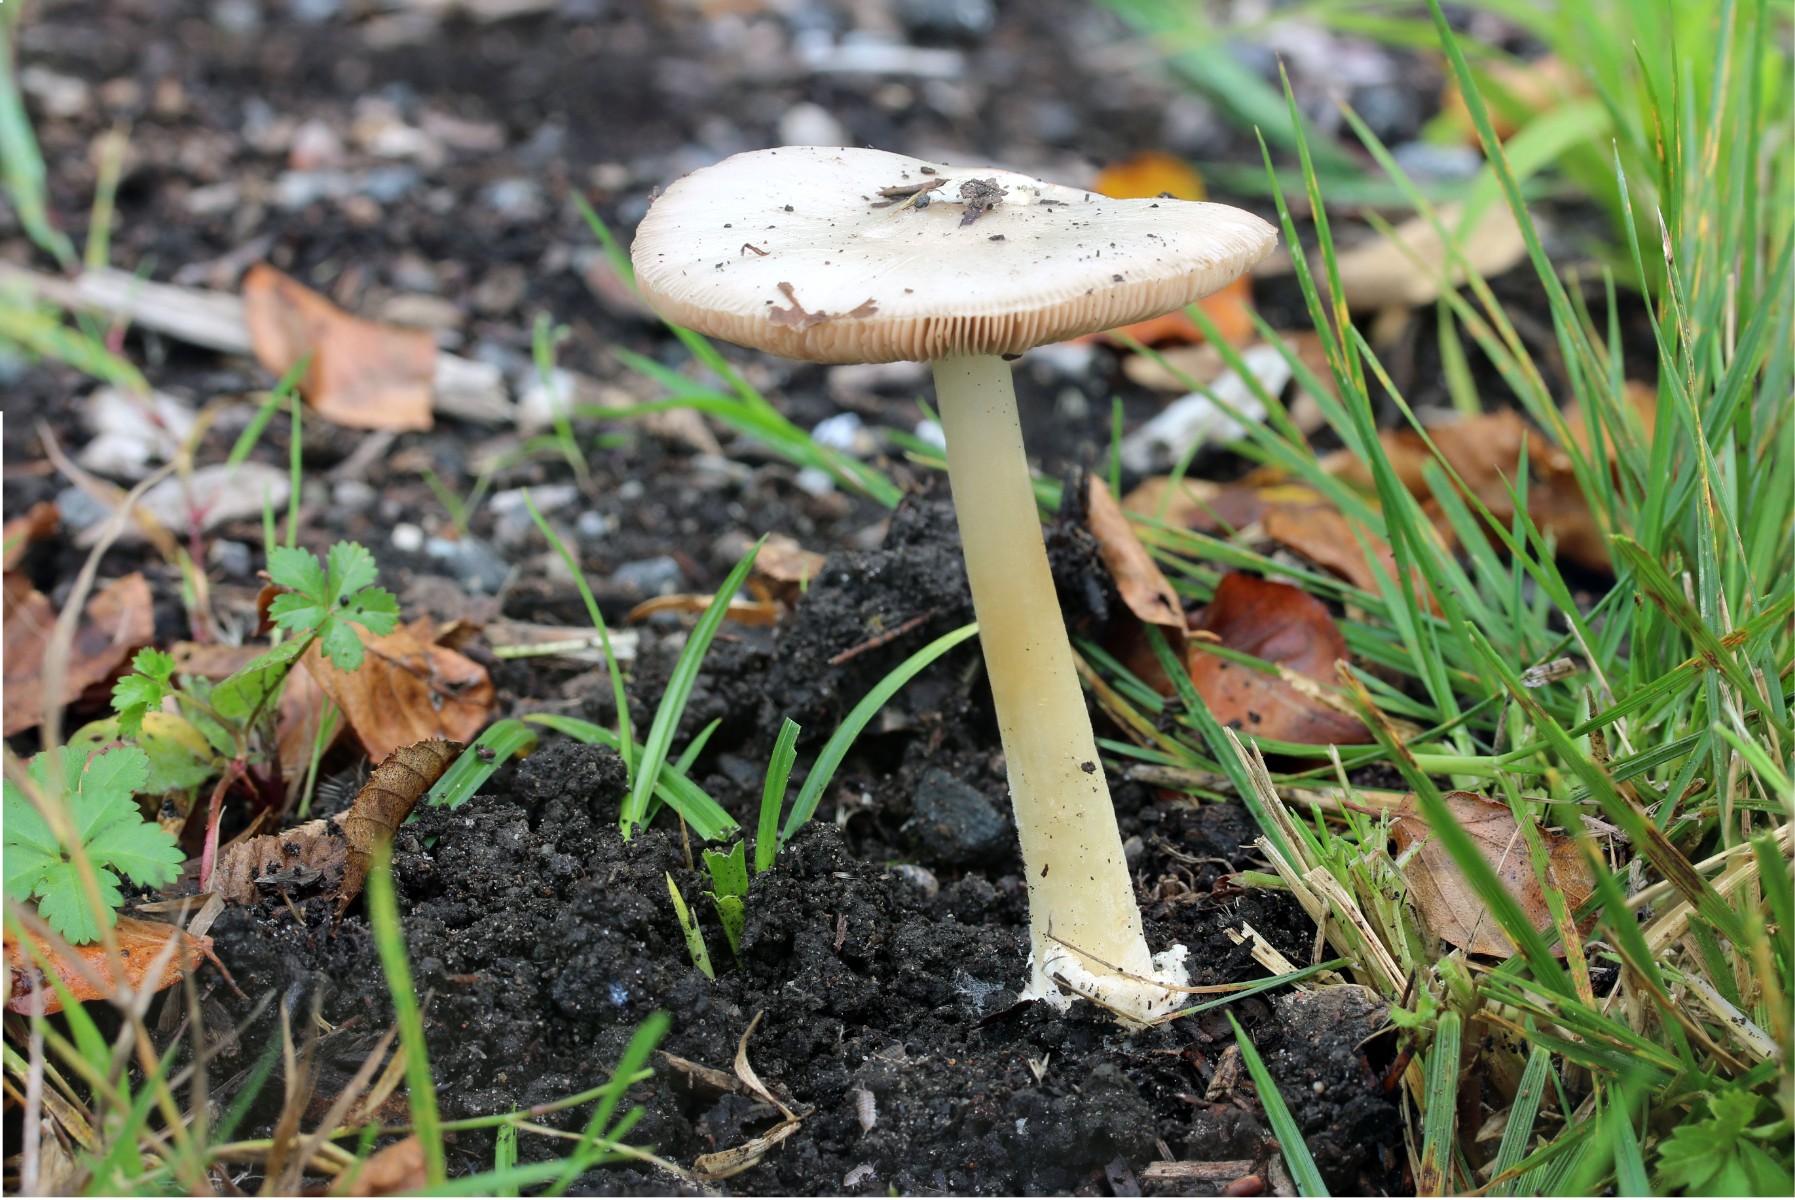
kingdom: Fungi
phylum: Basidiomycota
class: Agaricomycetes
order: Agaricales
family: Pluteaceae
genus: Volvopluteus
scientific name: Volvopluteus gloiocephalus
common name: høj posesvamp
